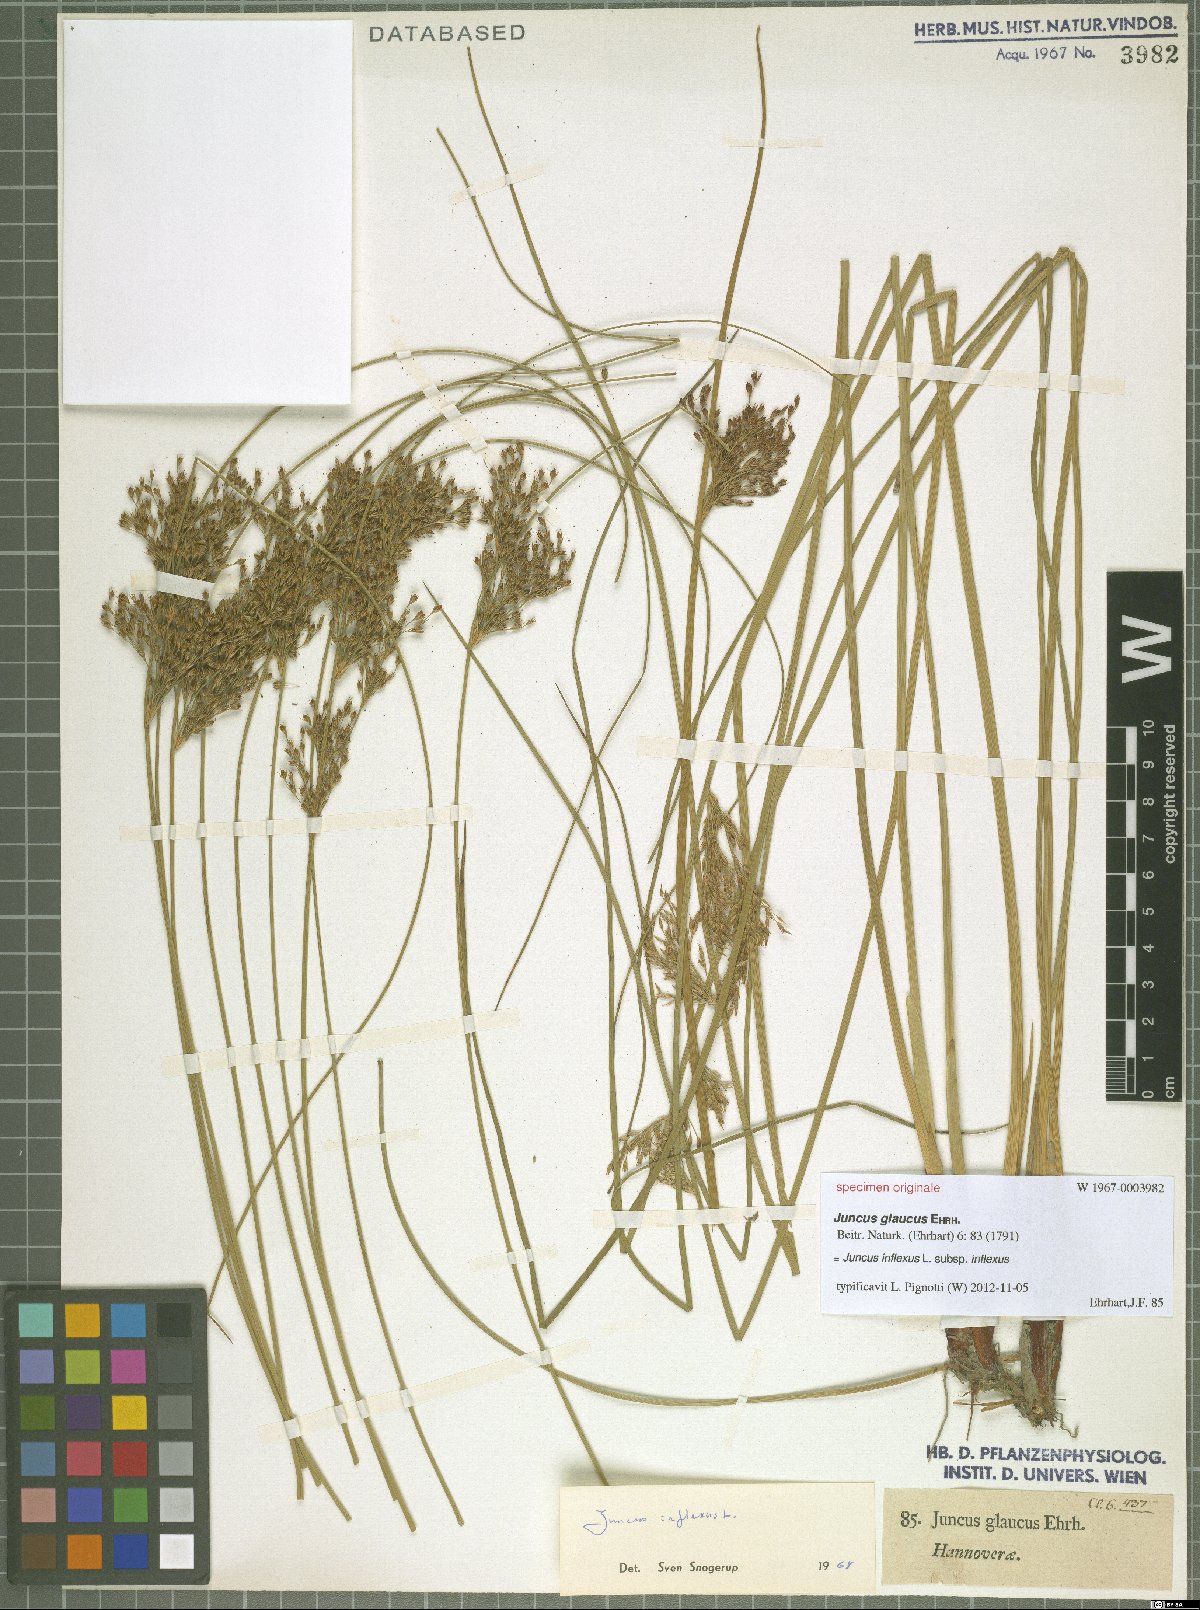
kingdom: Plantae
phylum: Tracheophyta
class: Liliopsida
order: Poales
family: Juncaceae
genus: Juncus
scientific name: Juncus inflexus
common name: Hard rush
